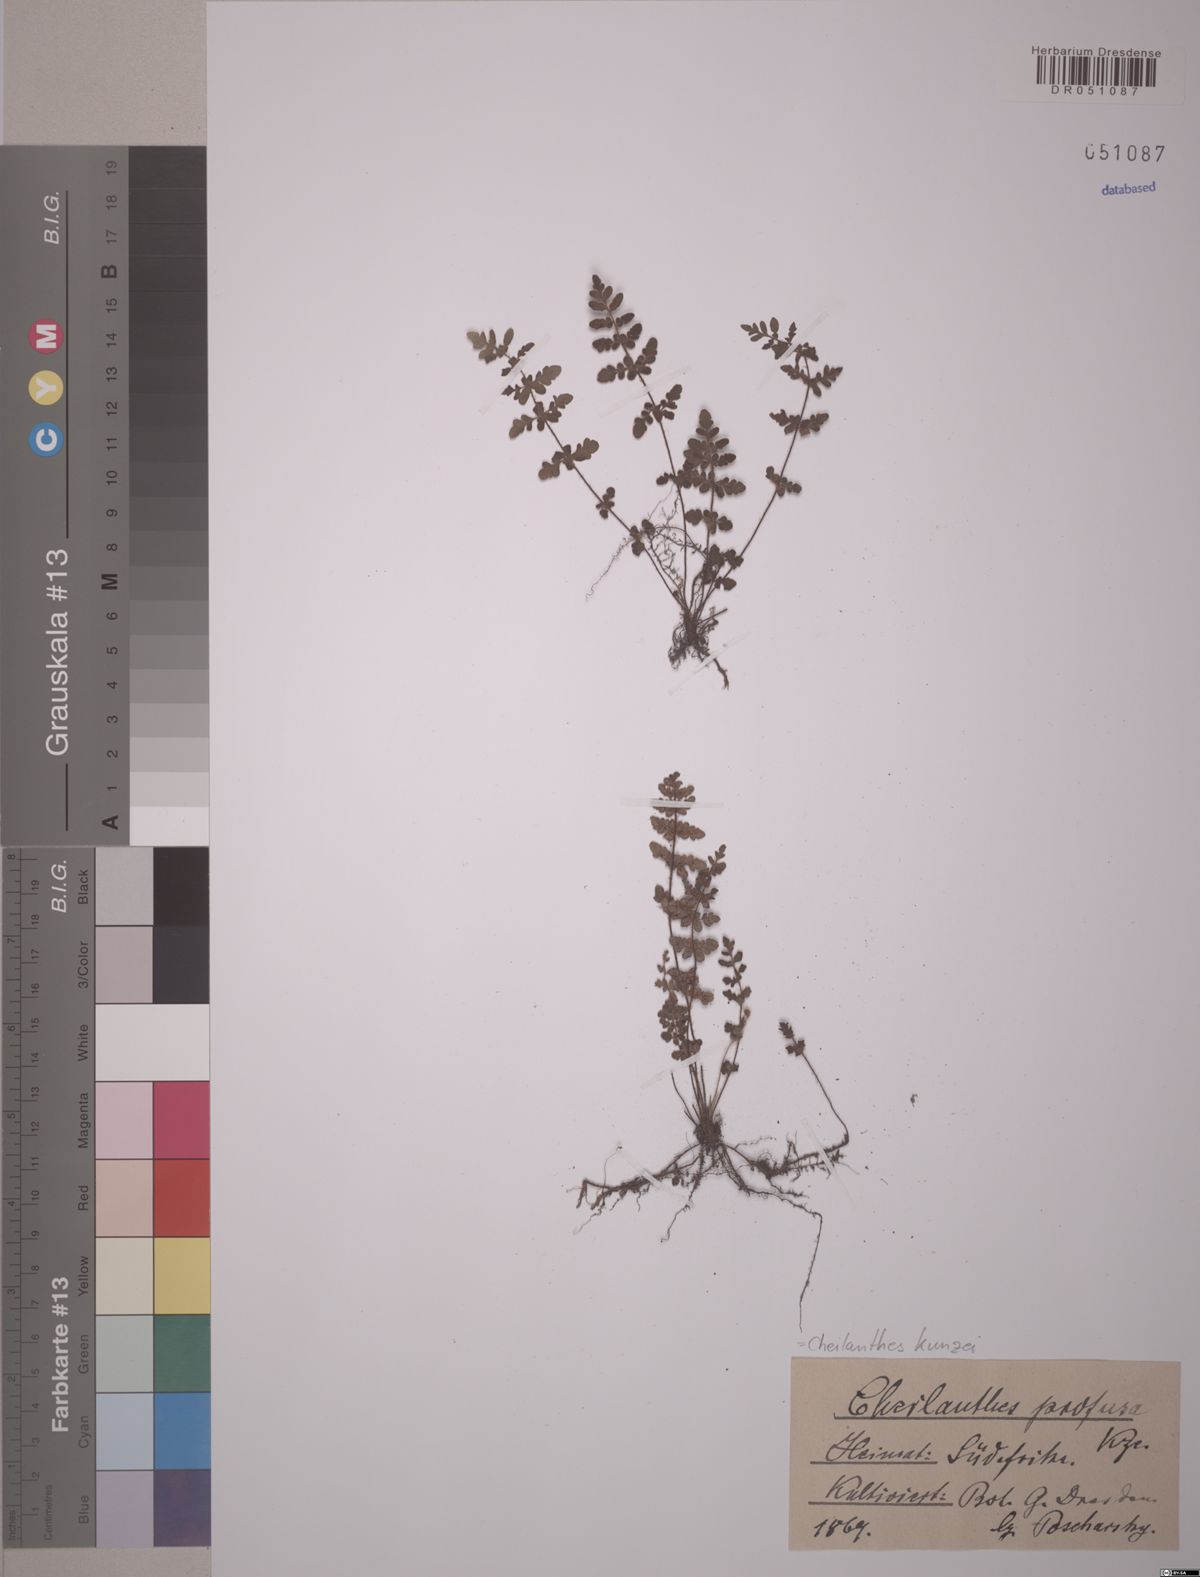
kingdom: Plantae
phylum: Tracheophyta
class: Polypodiopsida
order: Polypodiales
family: Pteridaceae
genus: Cheilanthes
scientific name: Cheilanthes kunzei
